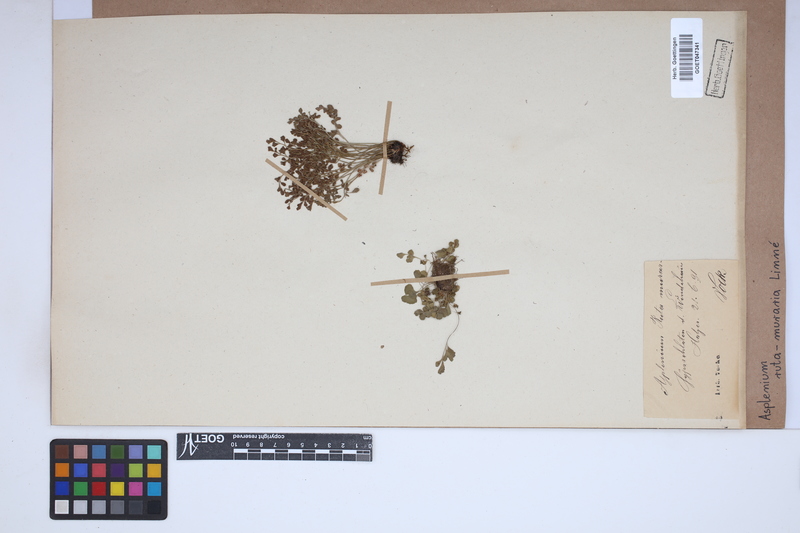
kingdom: Plantae
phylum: Tracheophyta
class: Polypodiopsida
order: Polypodiales
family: Aspleniaceae
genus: Asplenium
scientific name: Asplenium ruta-muraria
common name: Wall-rue
